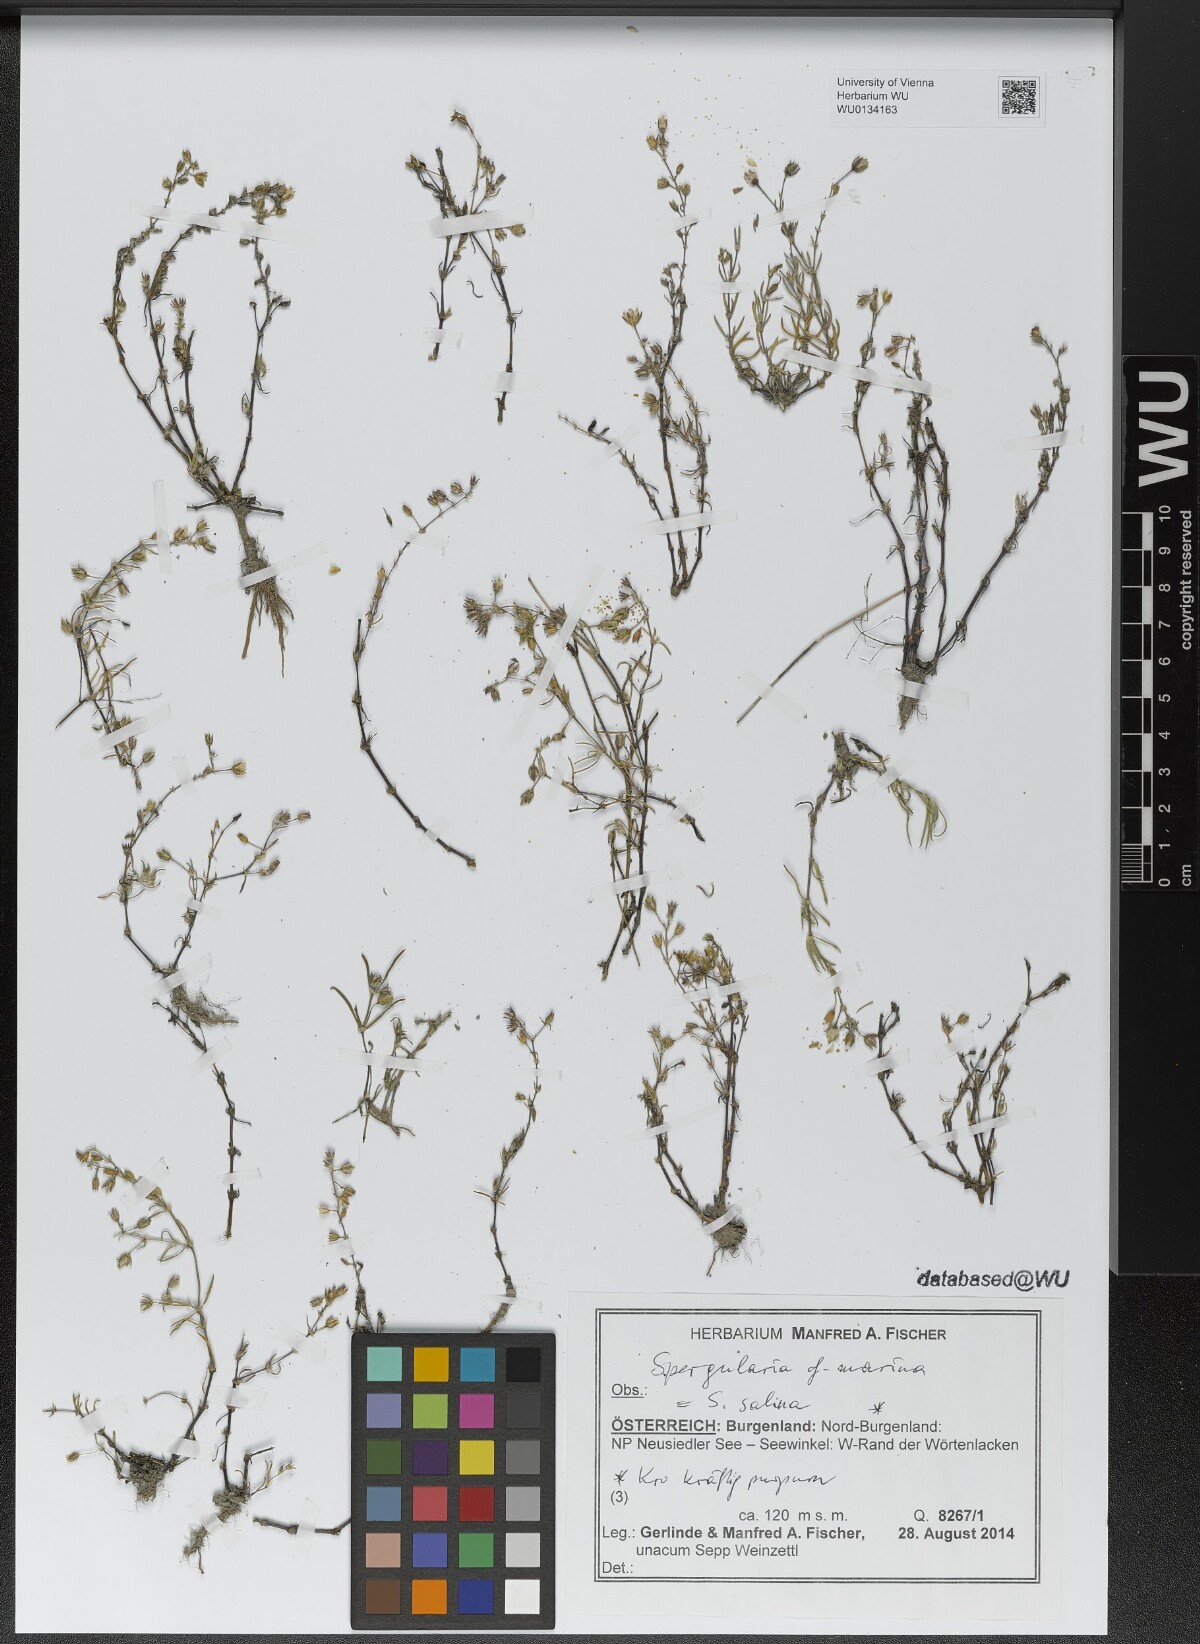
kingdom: Plantae
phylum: Tracheophyta
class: Magnoliopsida
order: Caryophyllales
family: Caryophyllaceae
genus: Spergularia
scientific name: Spergularia marina
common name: Lesser sea-spurrey
